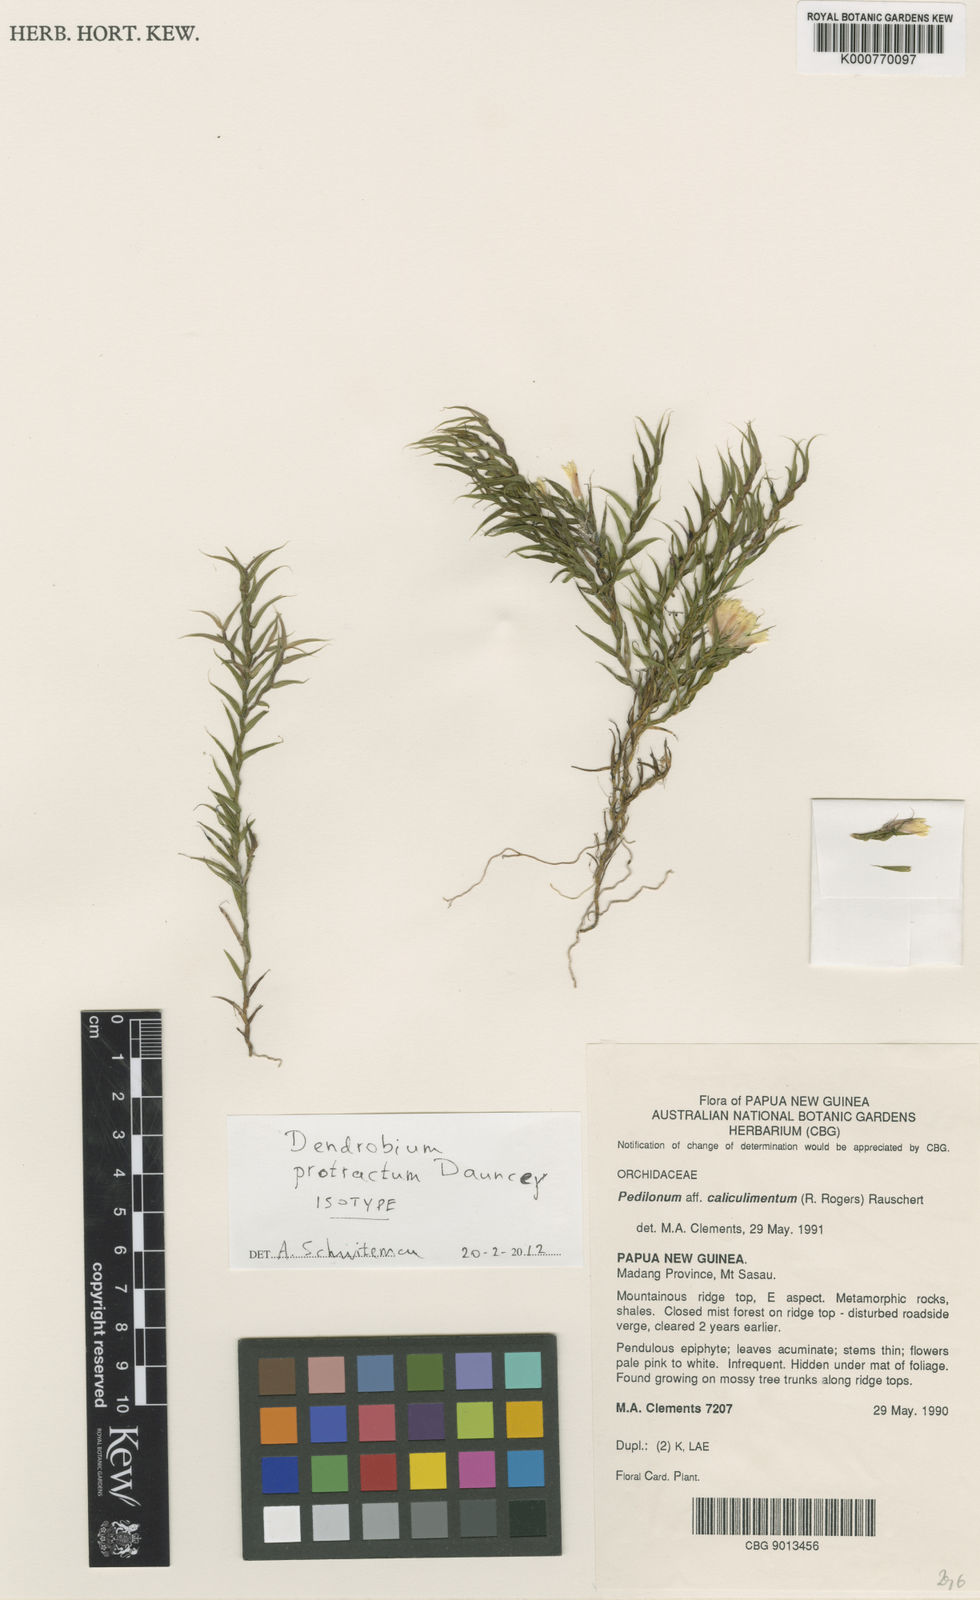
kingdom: Plantae
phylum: Tracheophyta
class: Liliopsida
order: Asparagales
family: Orchidaceae
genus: Dendrobium
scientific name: Dendrobium protractum
